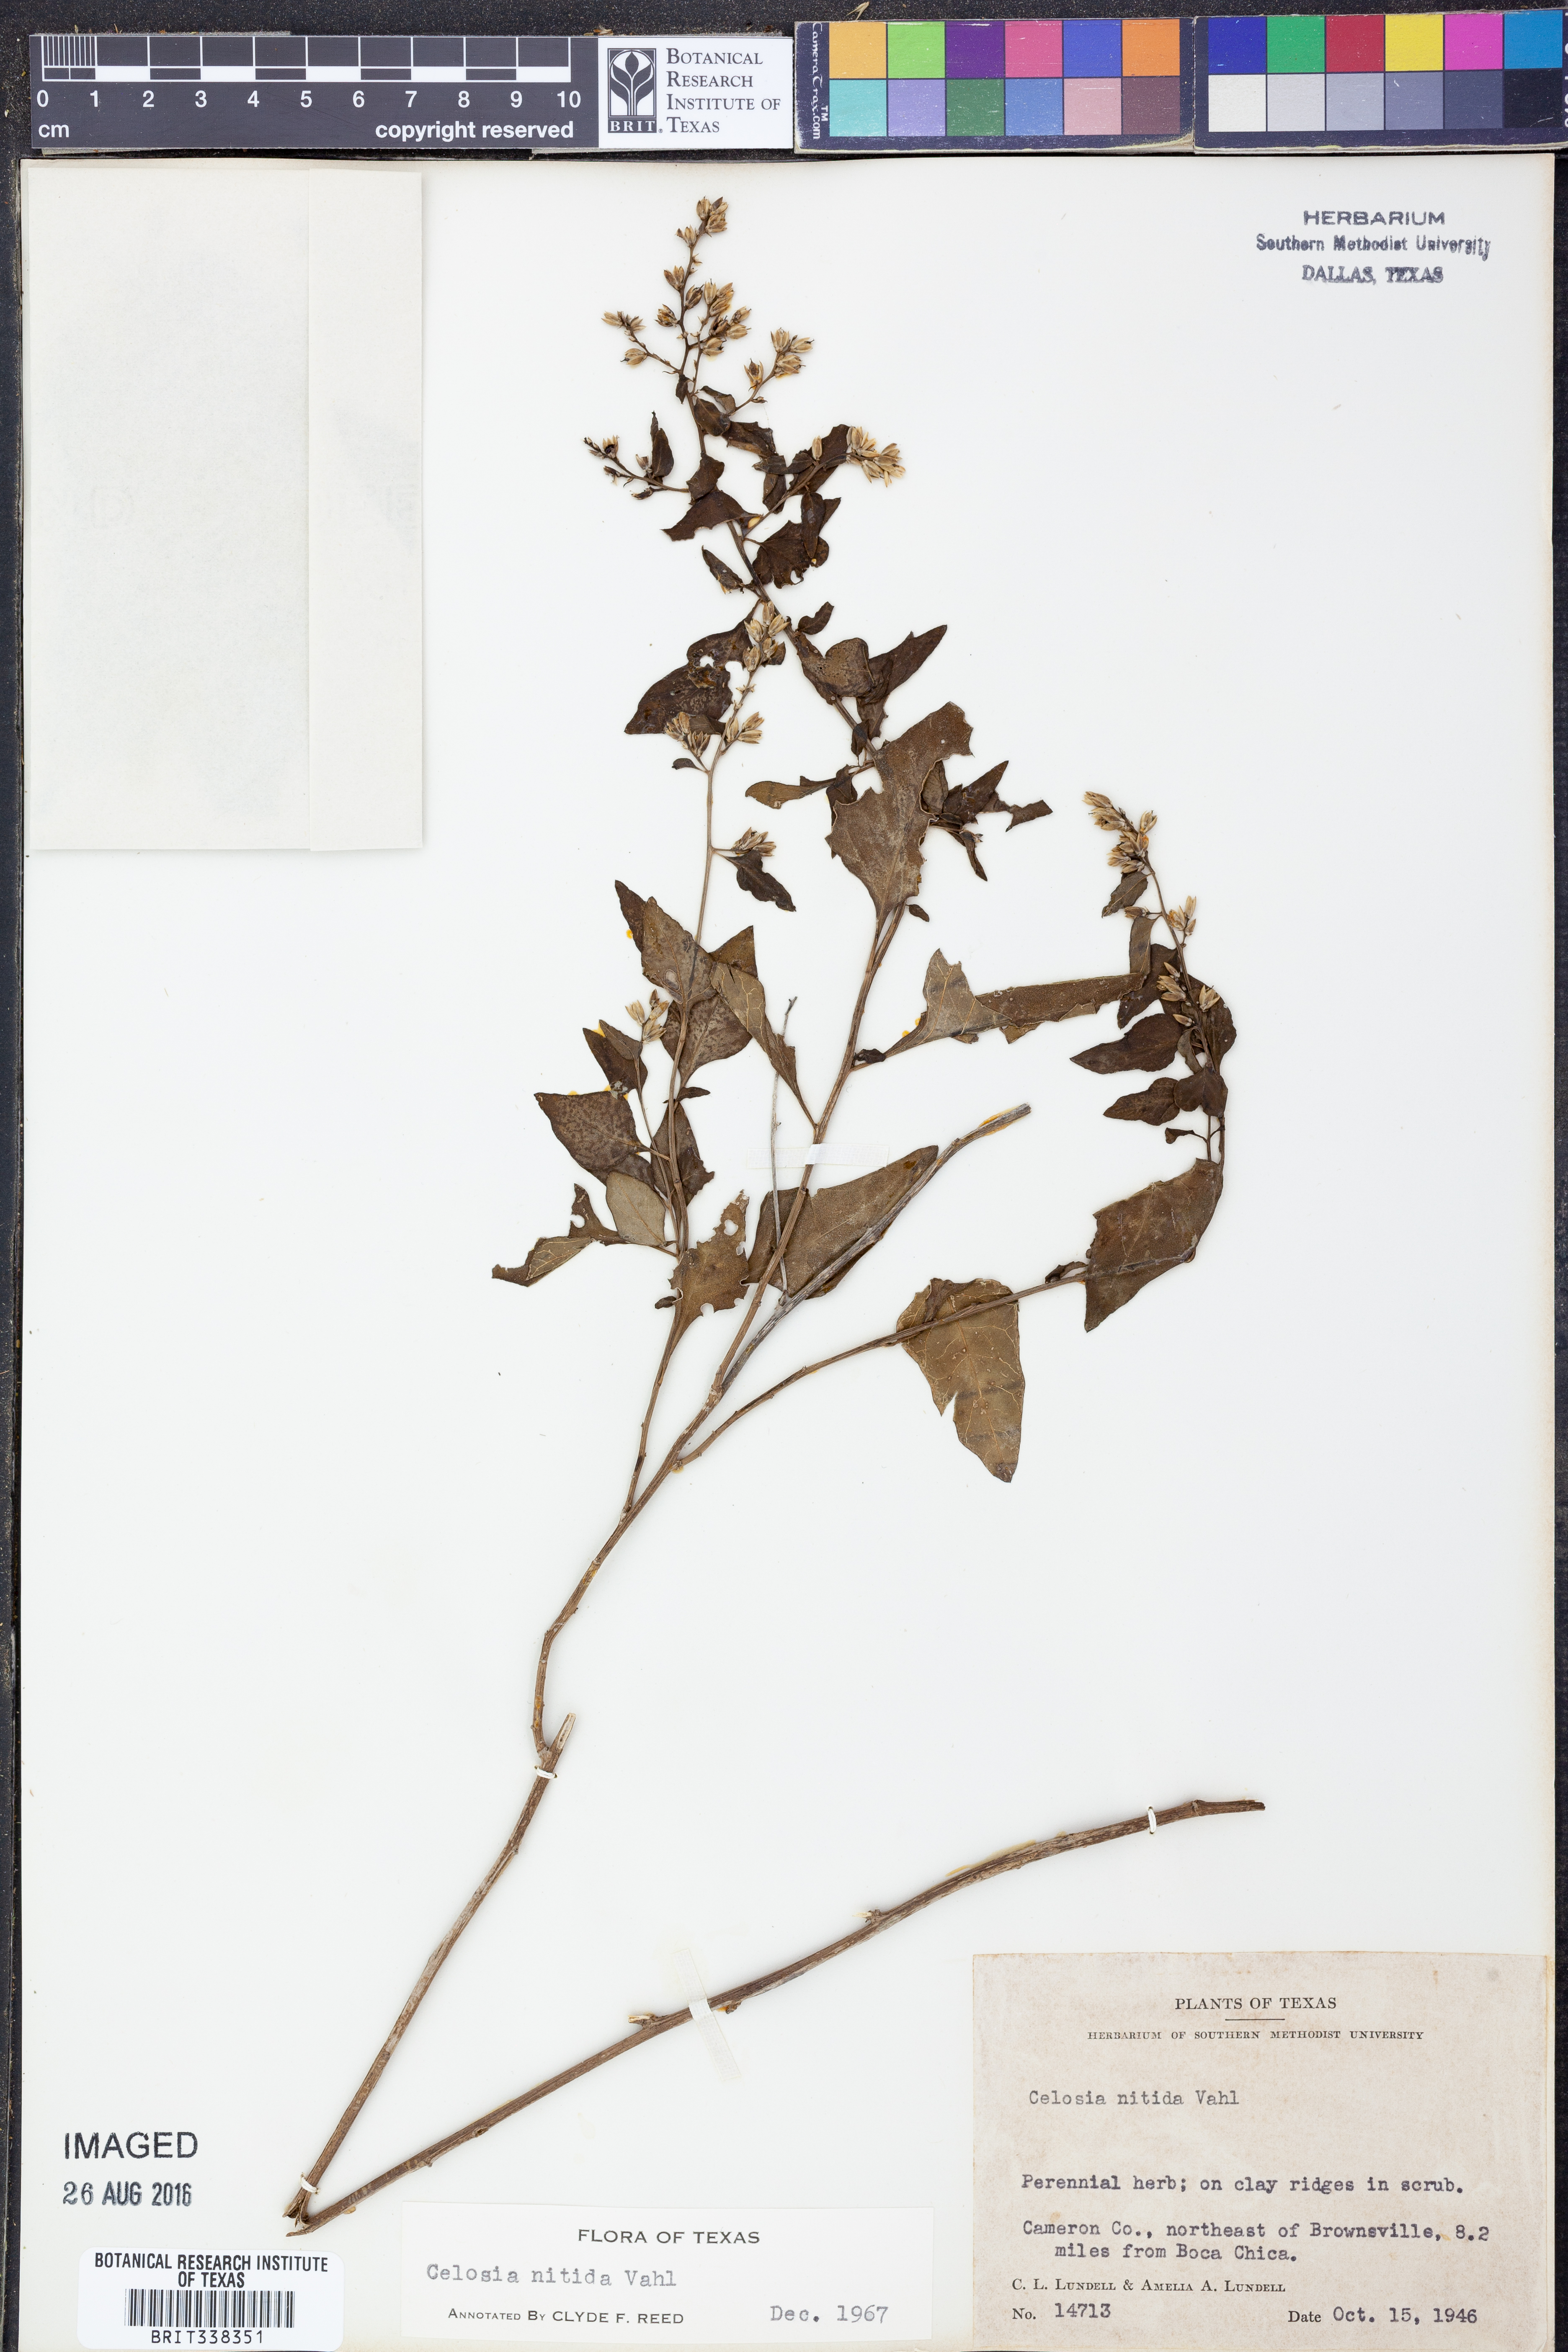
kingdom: Plantae
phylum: Tracheophyta
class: Magnoliopsida
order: Caryophyllales
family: Amaranthaceae
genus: Celosia
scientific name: Celosia nitida
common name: West indian cock's comb
